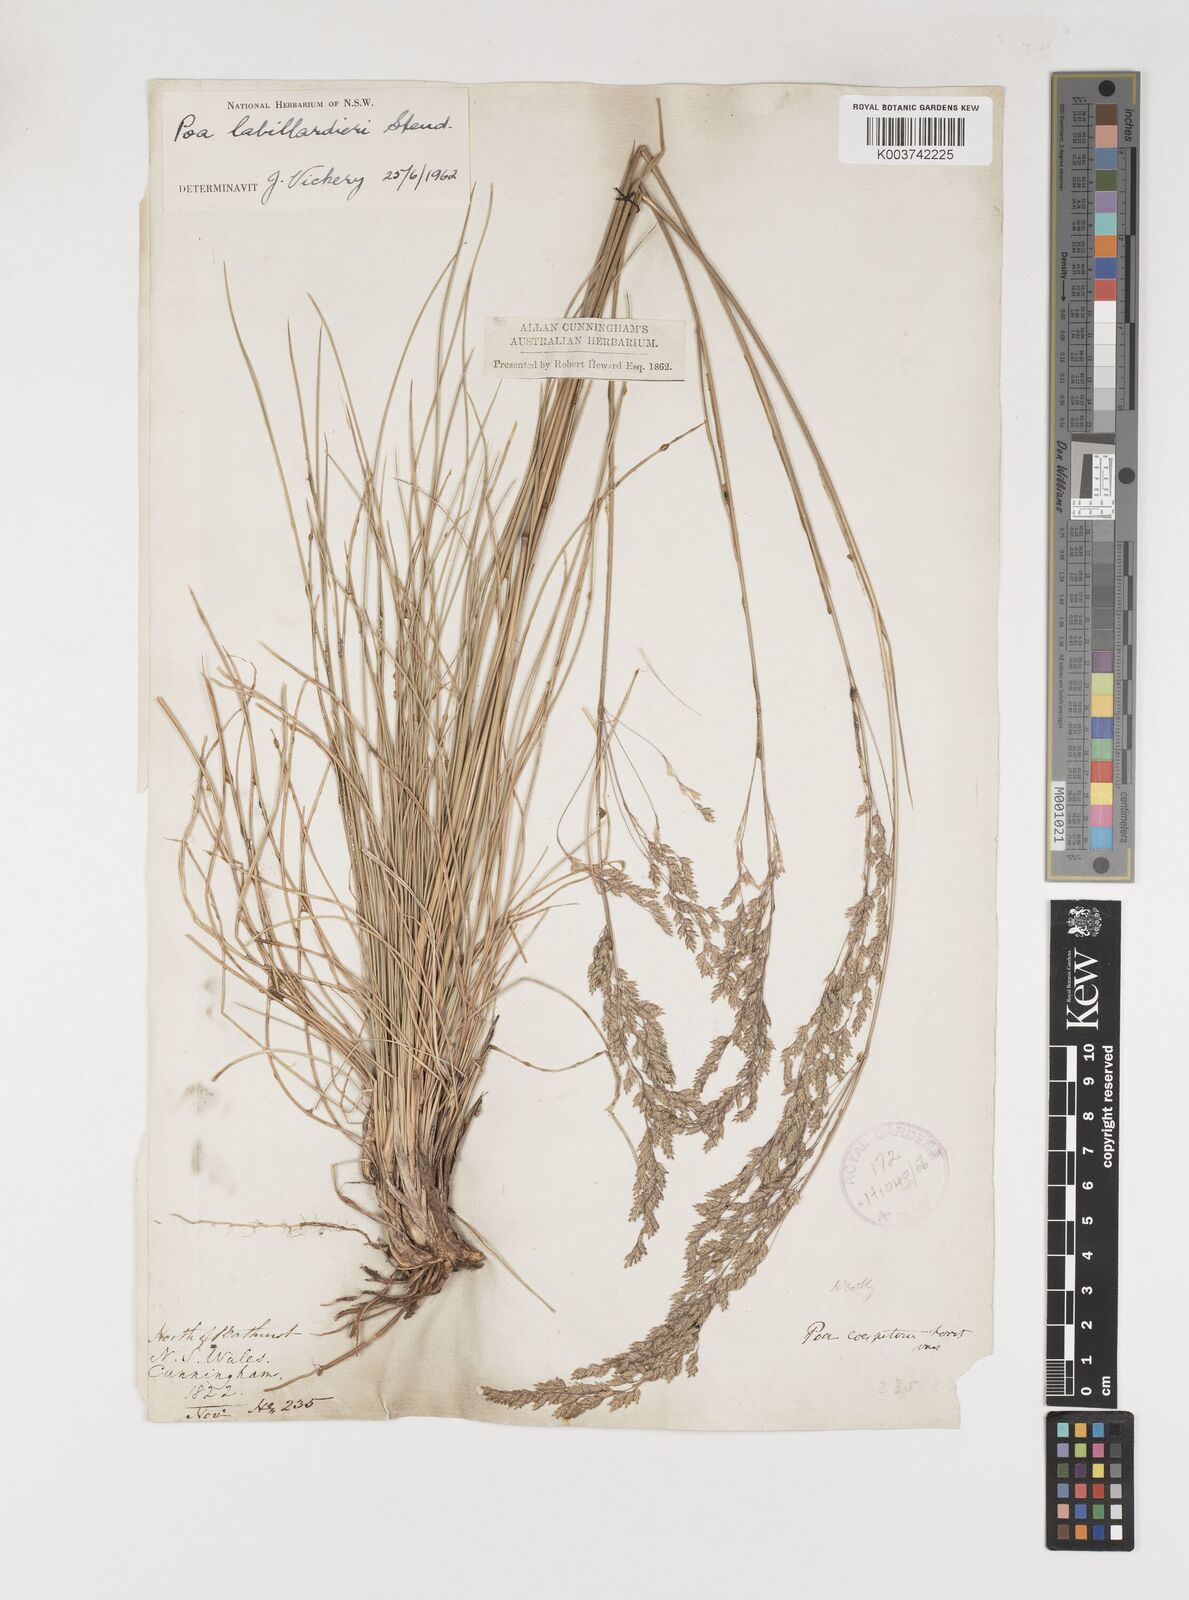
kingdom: Plantae
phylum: Tracheophyta
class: Liliopsida
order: Poales
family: Poaceae
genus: Poa
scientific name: Poa labillardierei
